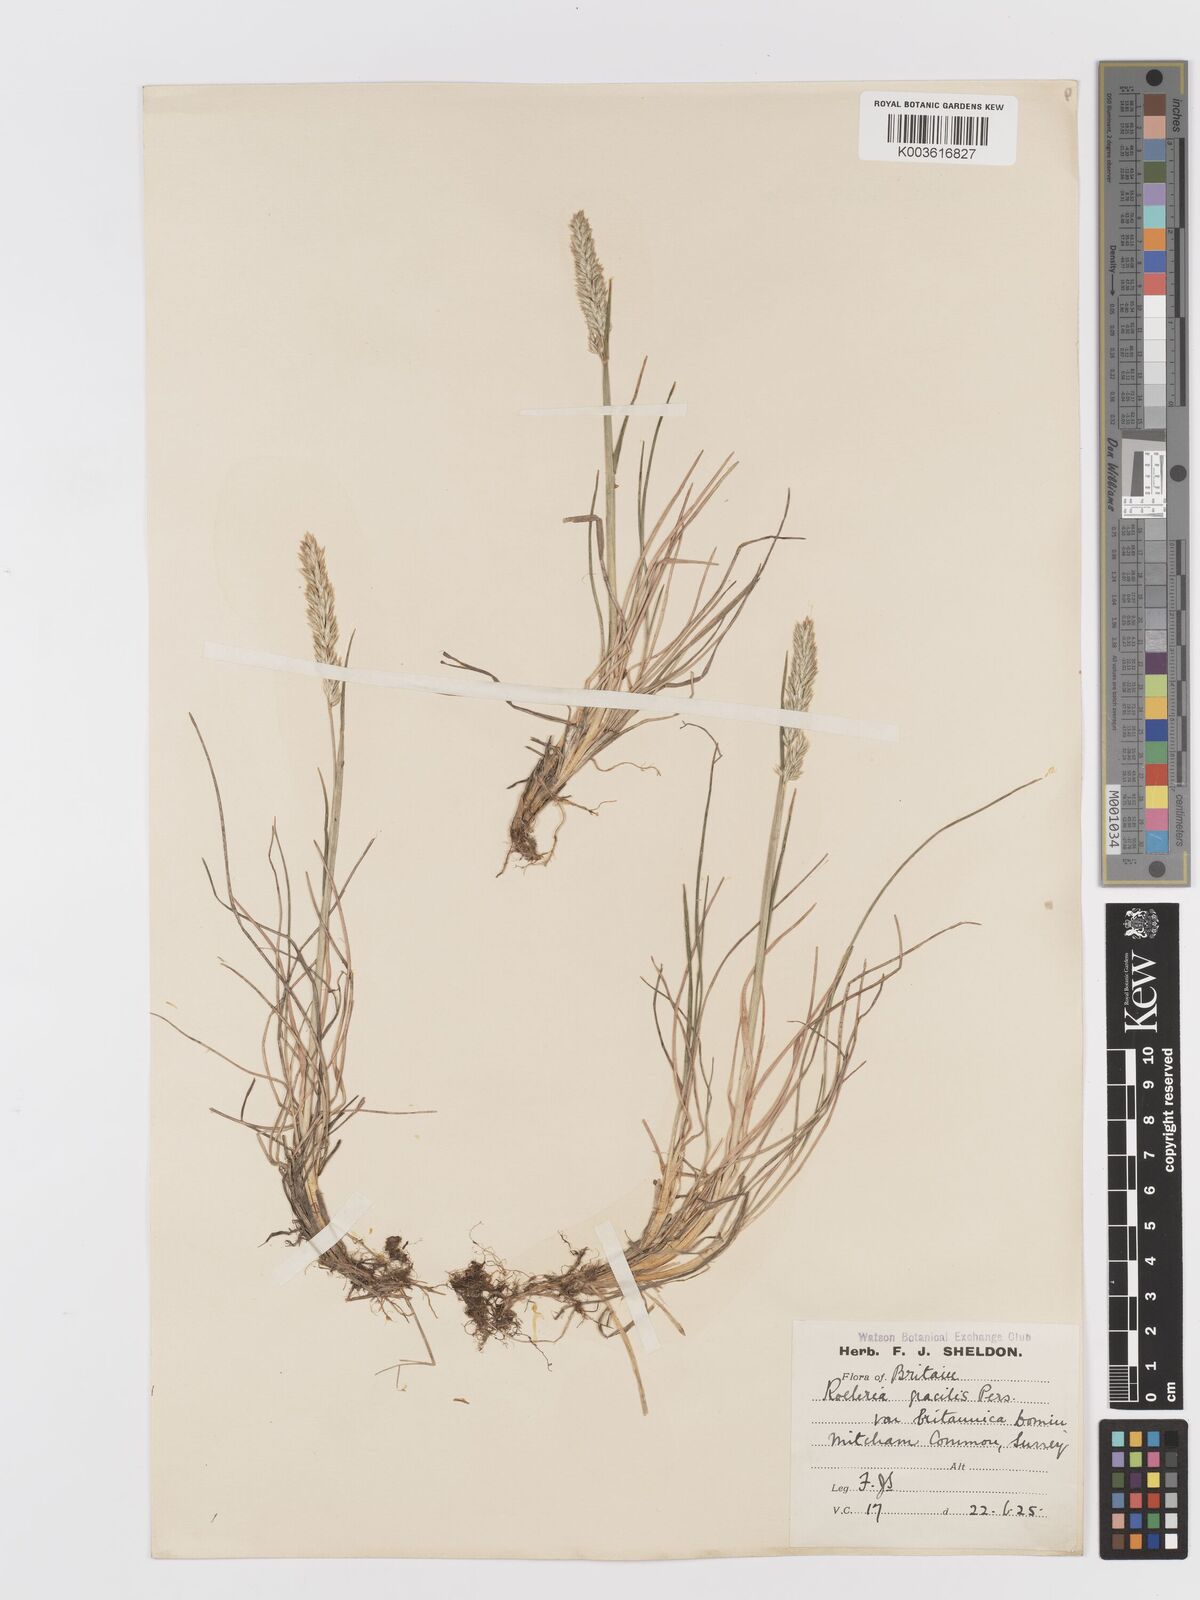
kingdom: Plantae
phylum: Tracheophyta
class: Liliopsida
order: Poales
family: Poaceae
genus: Koeleria
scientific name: Koeleria macrantha
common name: Crested hair-grass
